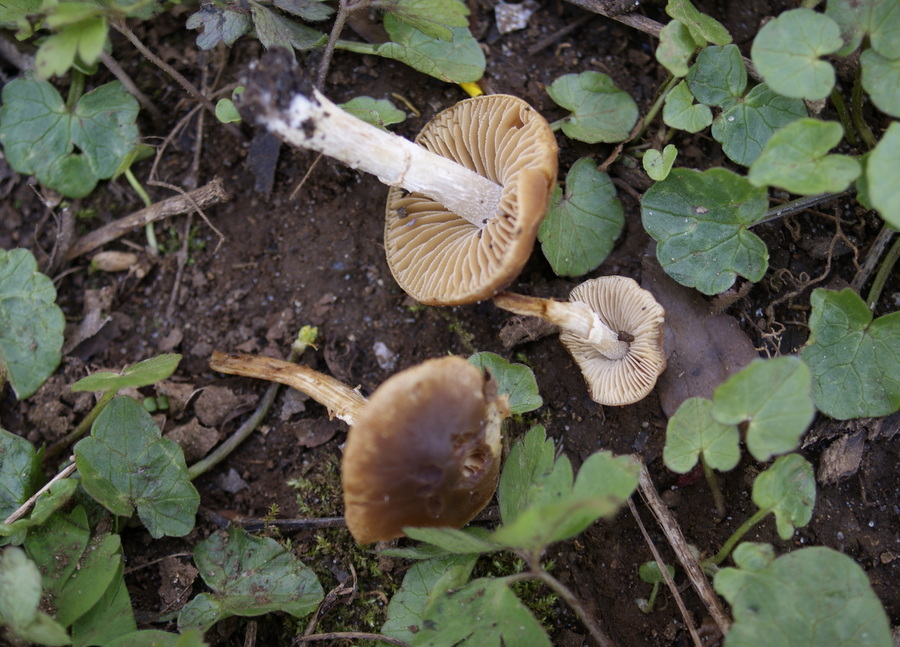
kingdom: Fungi
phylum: Basidiomycota
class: Agaricomycetes
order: Agaricales
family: Bolbitiaceae
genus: Conocybe
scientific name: Conocybe aporos
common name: tidlig dansehat
